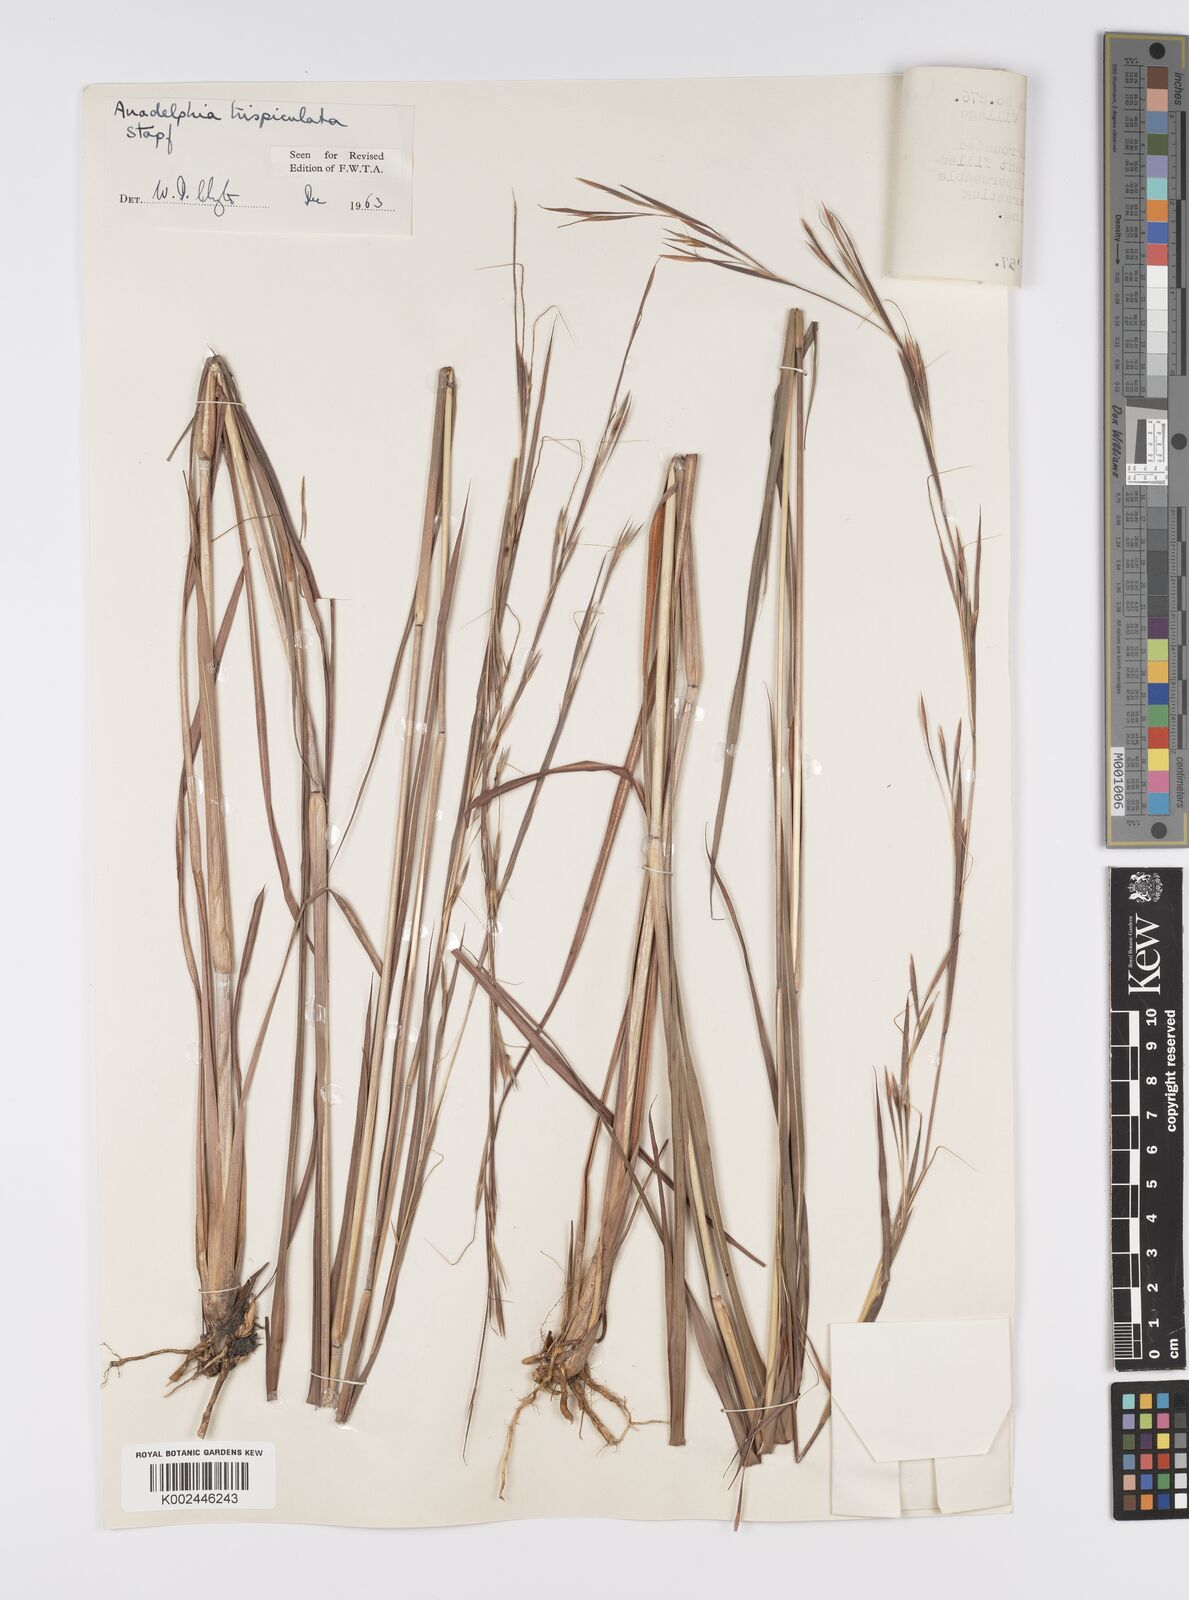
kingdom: Plantae
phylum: Tracheophyta
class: Liliopsida
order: Poales
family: Poaceae
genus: Anadelphia
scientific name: Anadelphia trispiculata
